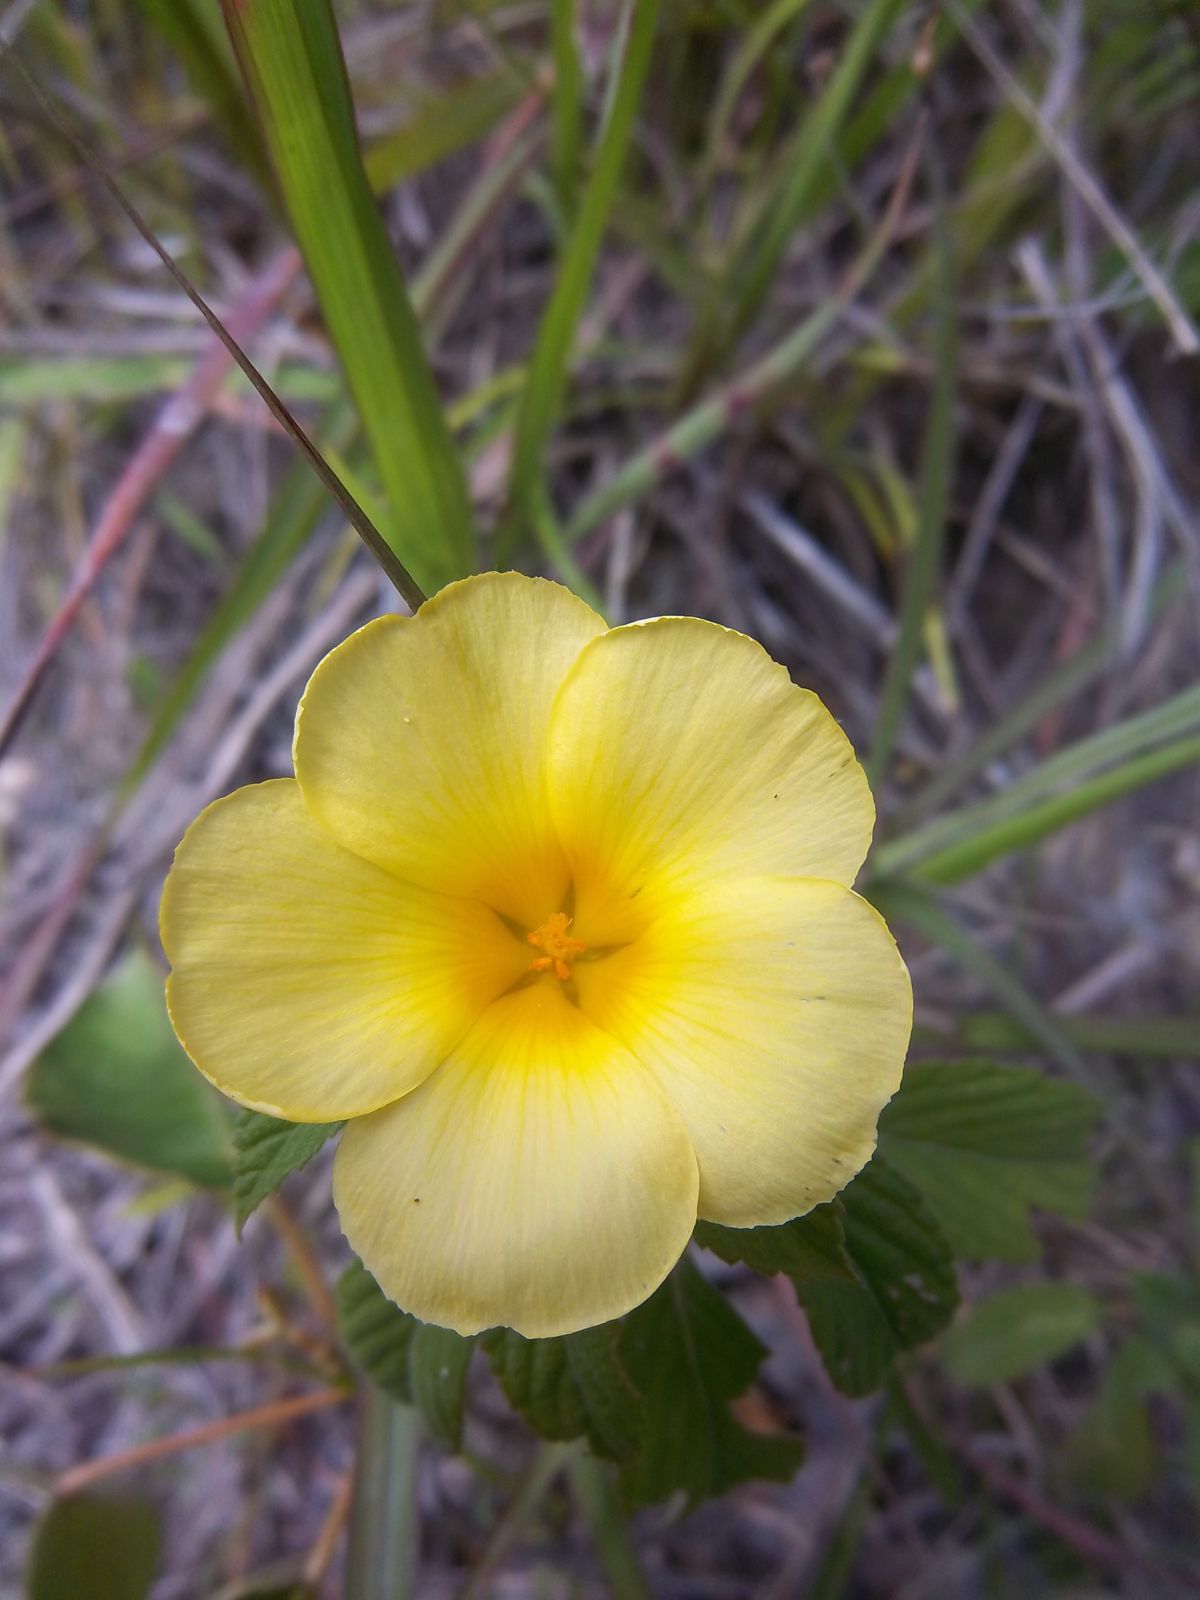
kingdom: Plantae
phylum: Tracheophyta
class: Magnoliopsida
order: Malpighiales
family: Turneraceae
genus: Turnera
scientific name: Turnera ulmifolia
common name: Ramgoat dashalong
